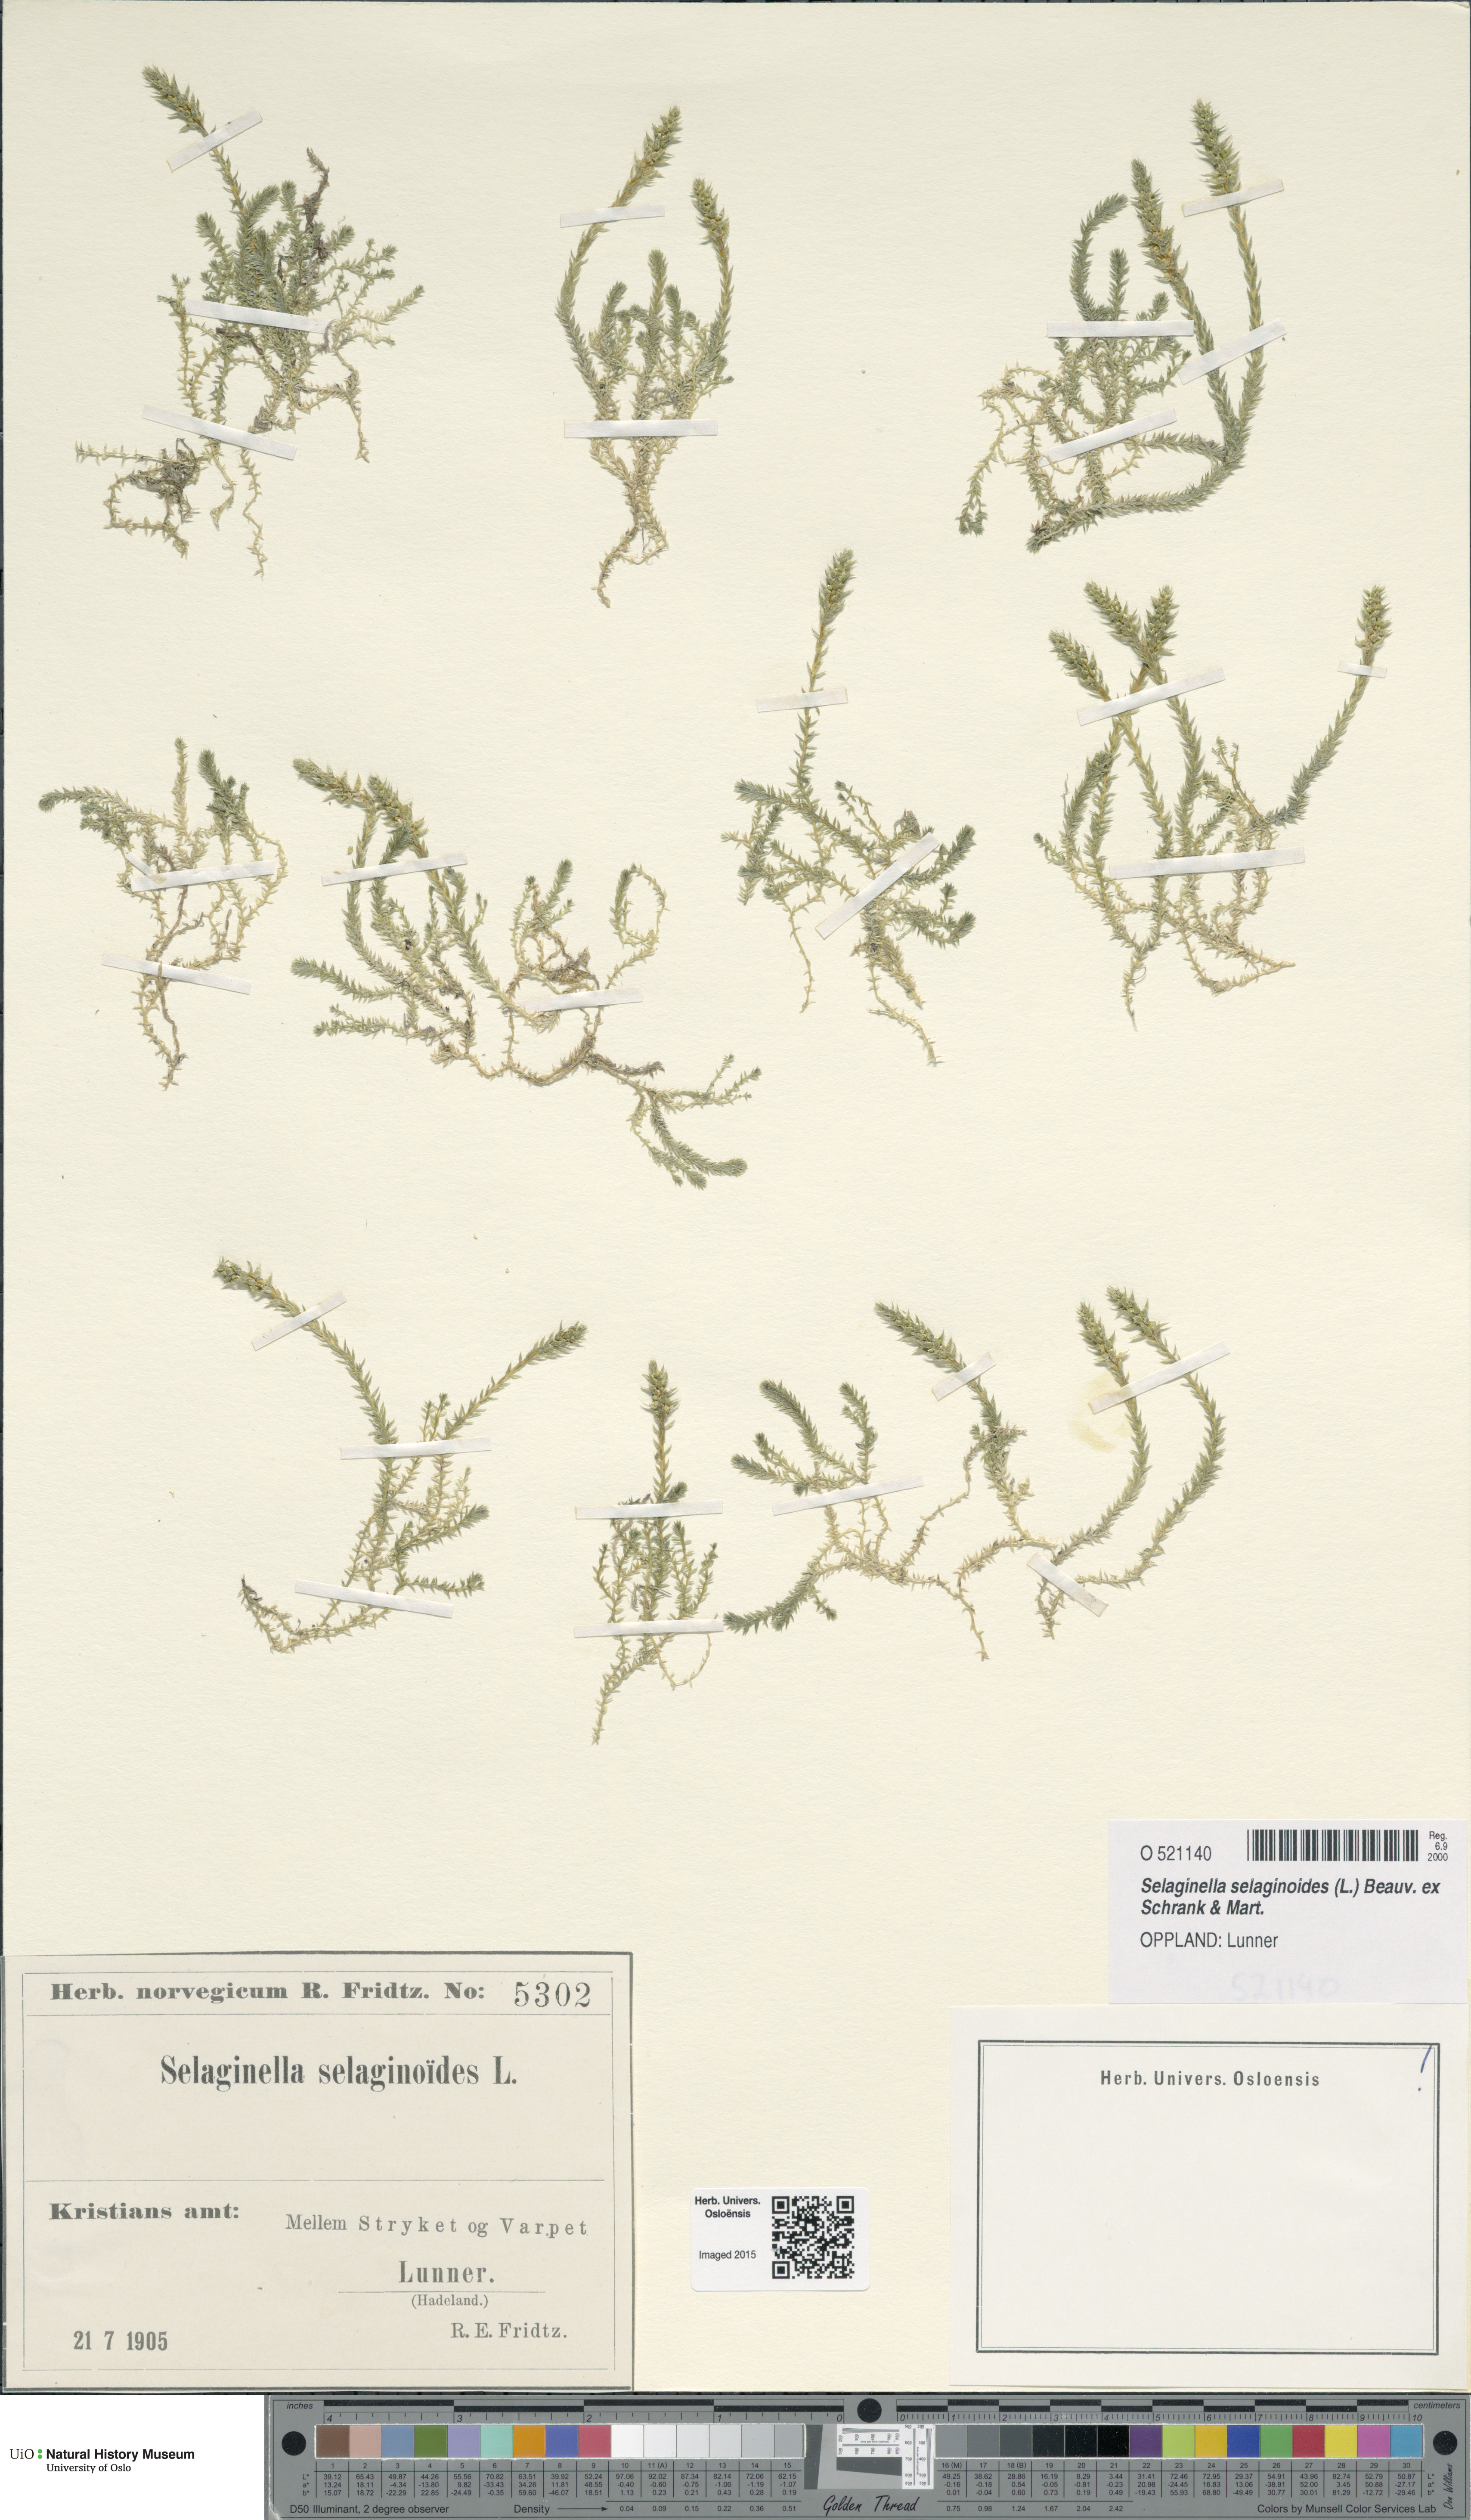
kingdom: Plantae
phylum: Tracheophyta
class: Lycopodiopsida
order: Selaginellales
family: Selaginellaceae
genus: Selaginella
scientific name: Selaginella selaginoides
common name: Prickly mountain-moss
